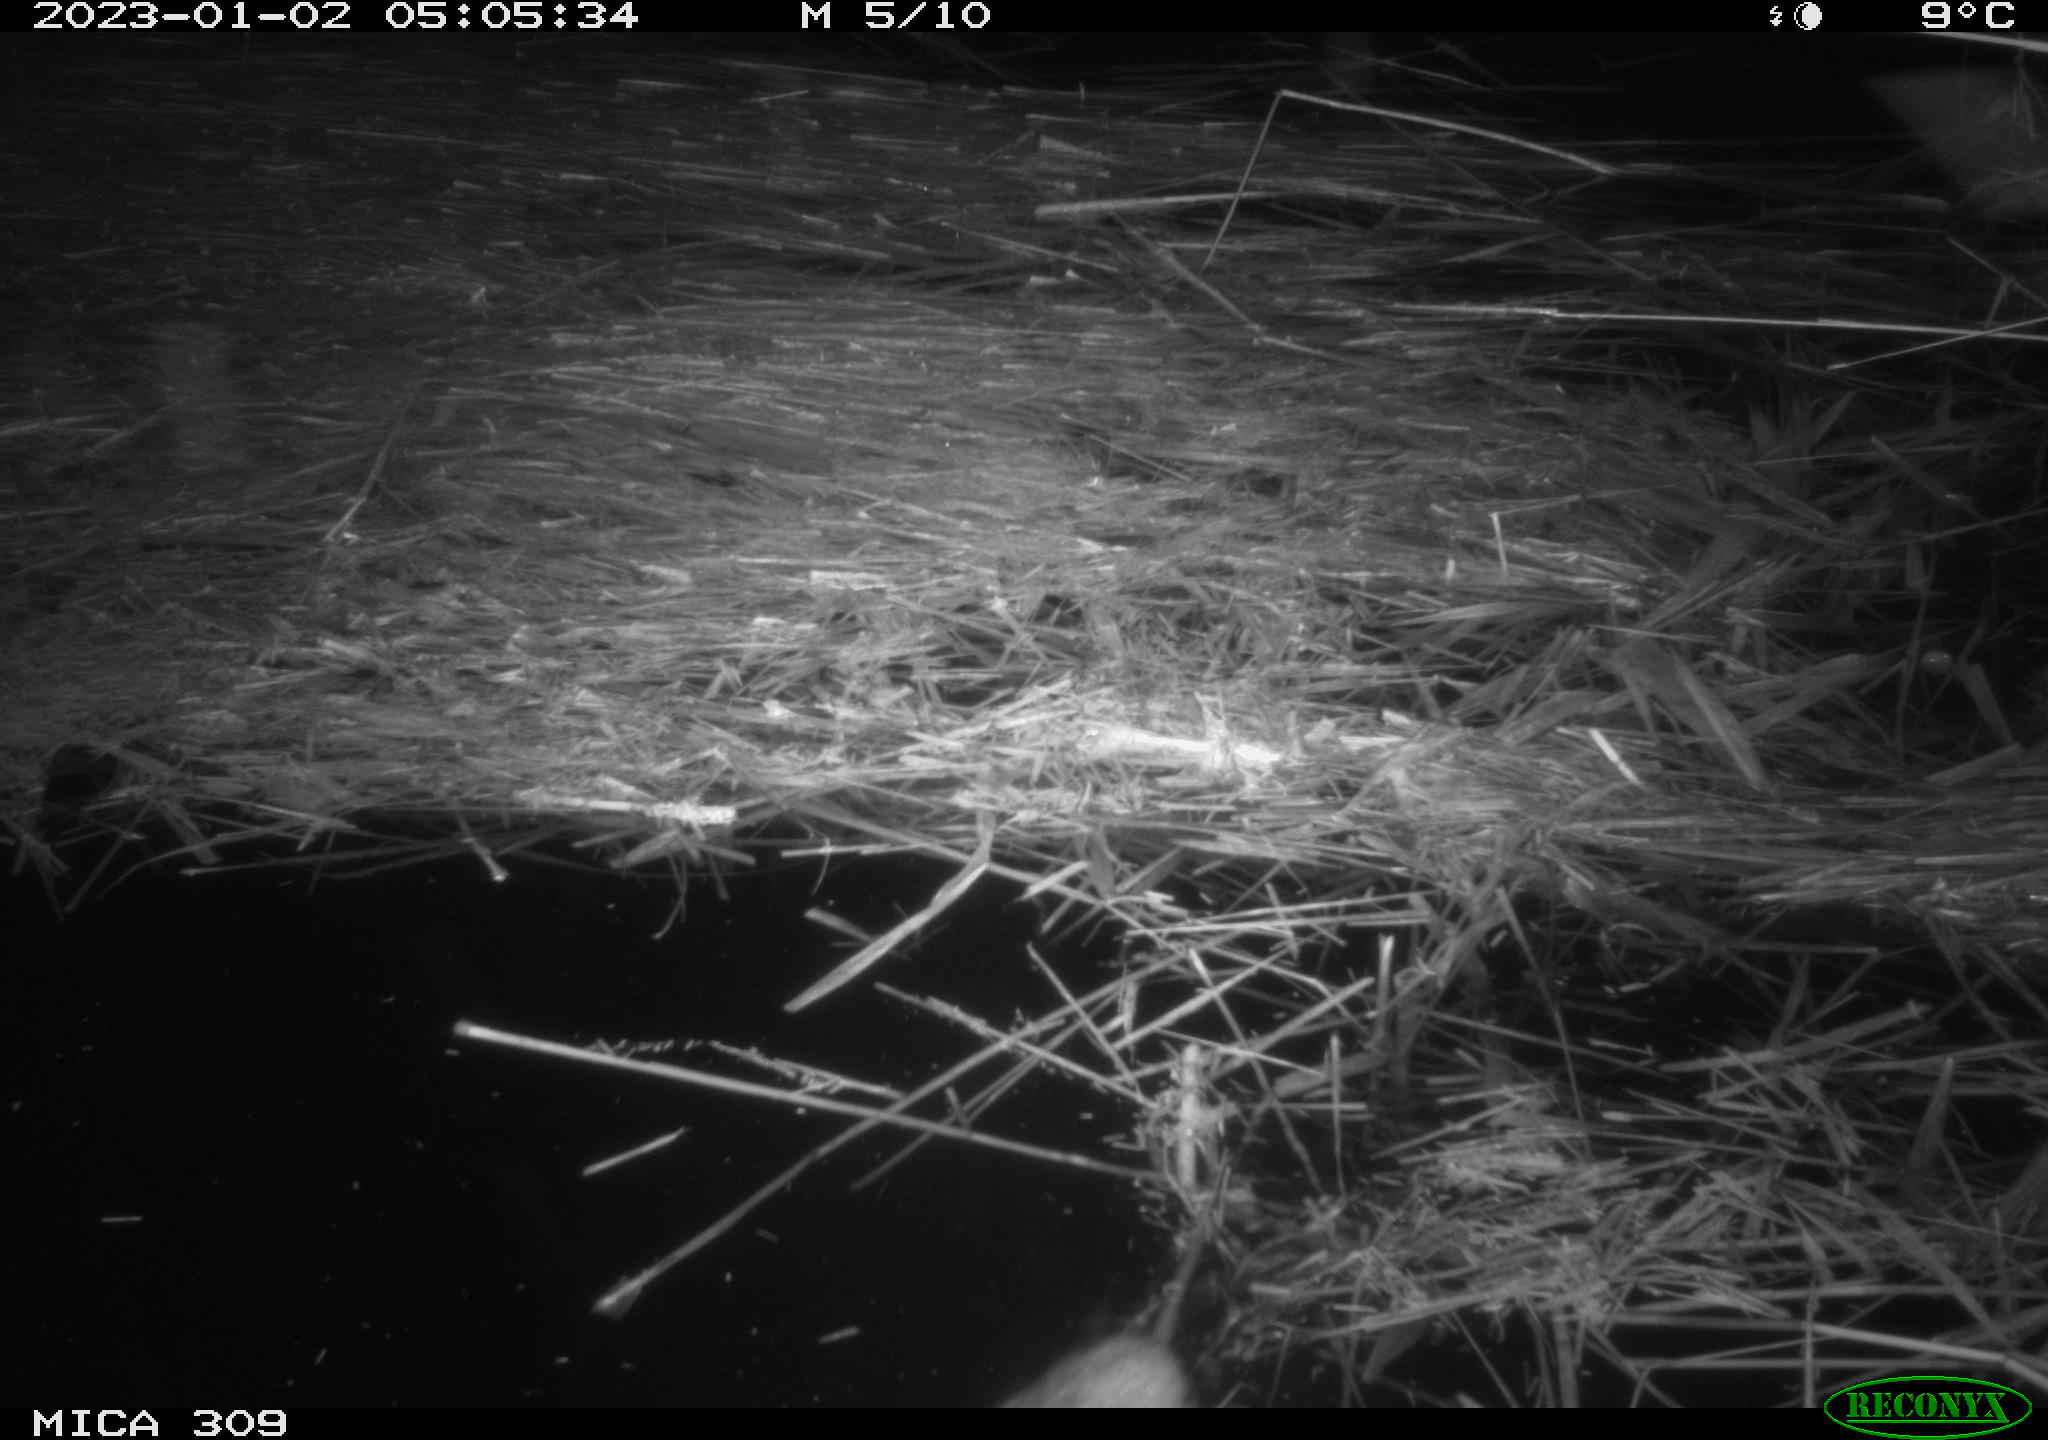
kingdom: Animalia
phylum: Chordata
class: Mammalia
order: Rodentia
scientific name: Rodentia
